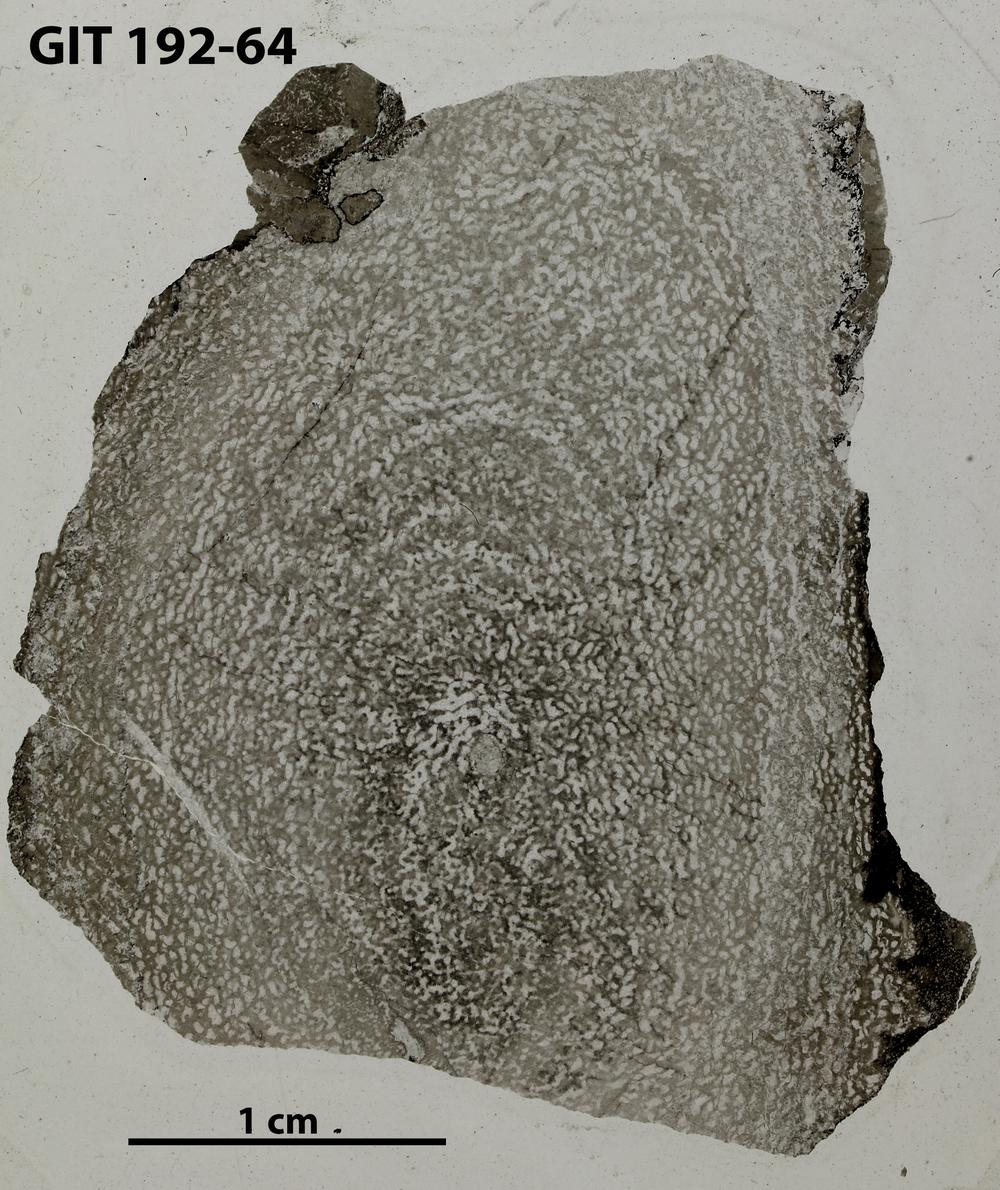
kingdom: Animalia
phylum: Porifera
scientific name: Porifera
